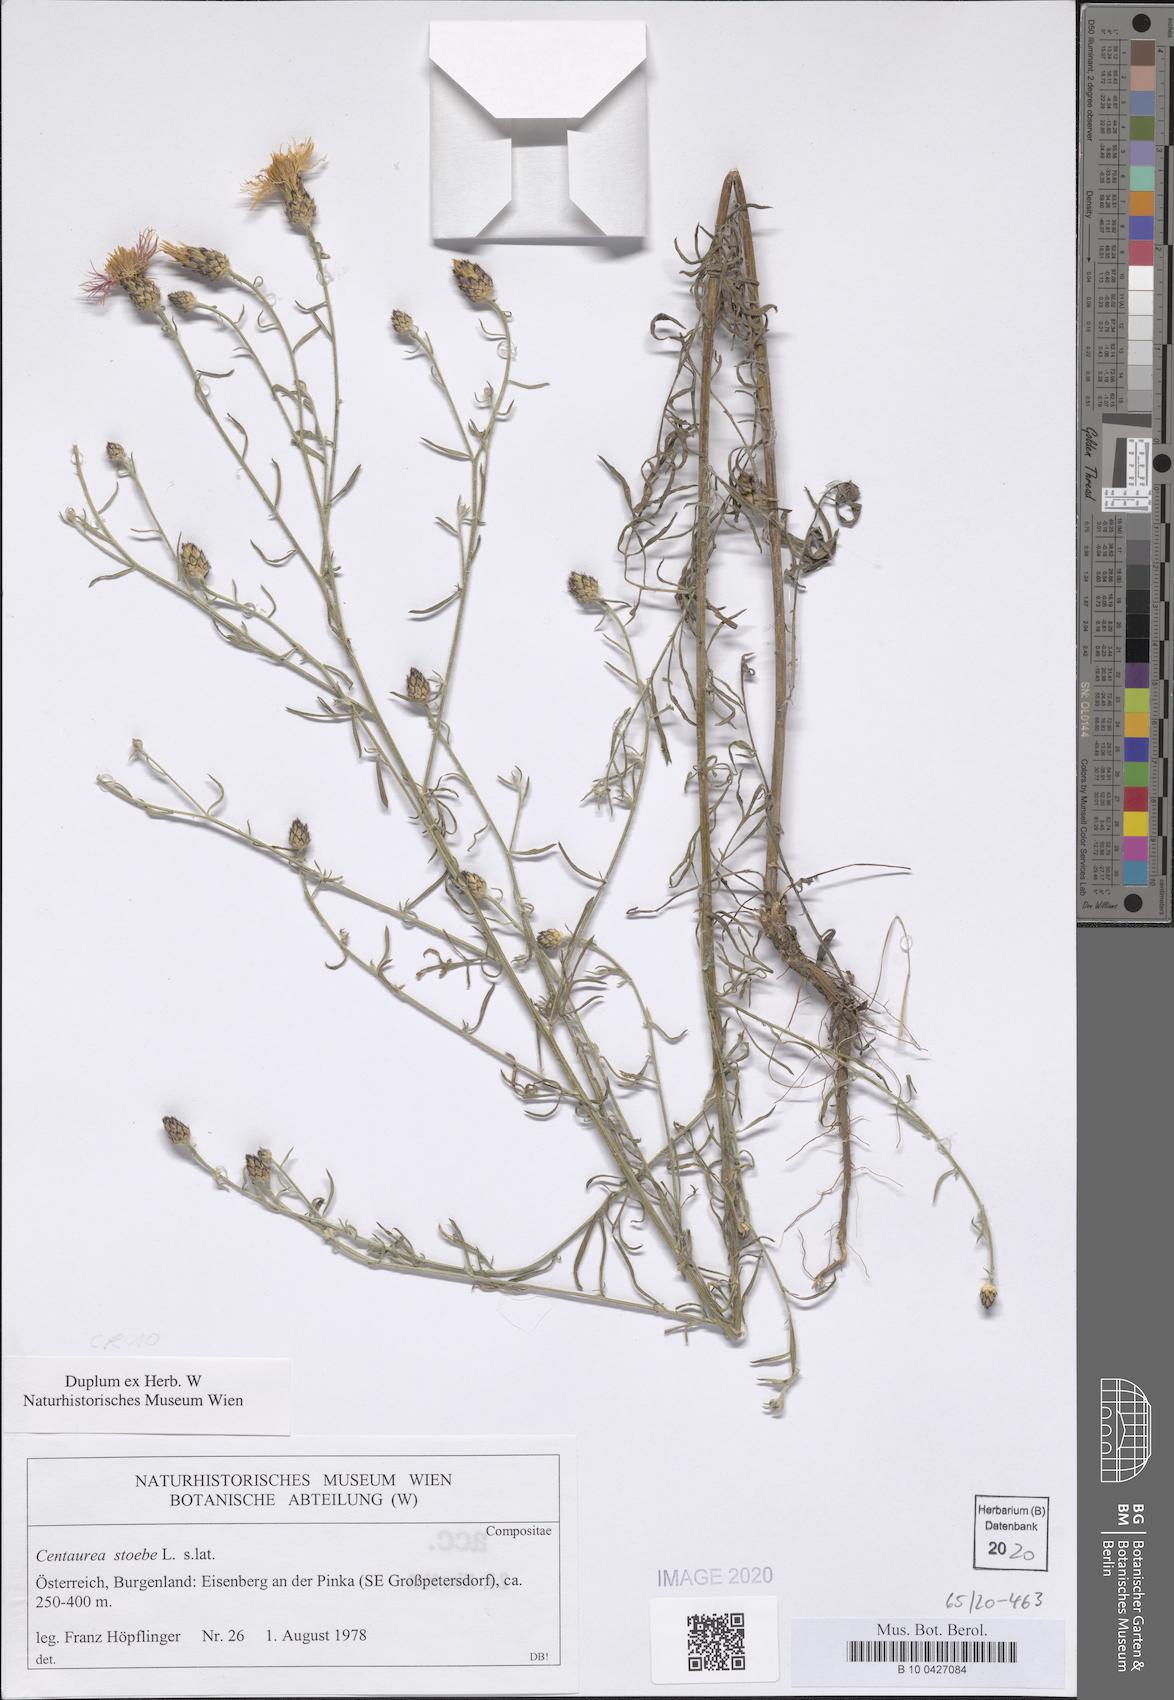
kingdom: Plantae
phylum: Tracheophyta
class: Magnoliopsida
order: Asterales
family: Asteraceae
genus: Centaurea
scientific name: Centaurea stoebe
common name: Spotted knapweed
